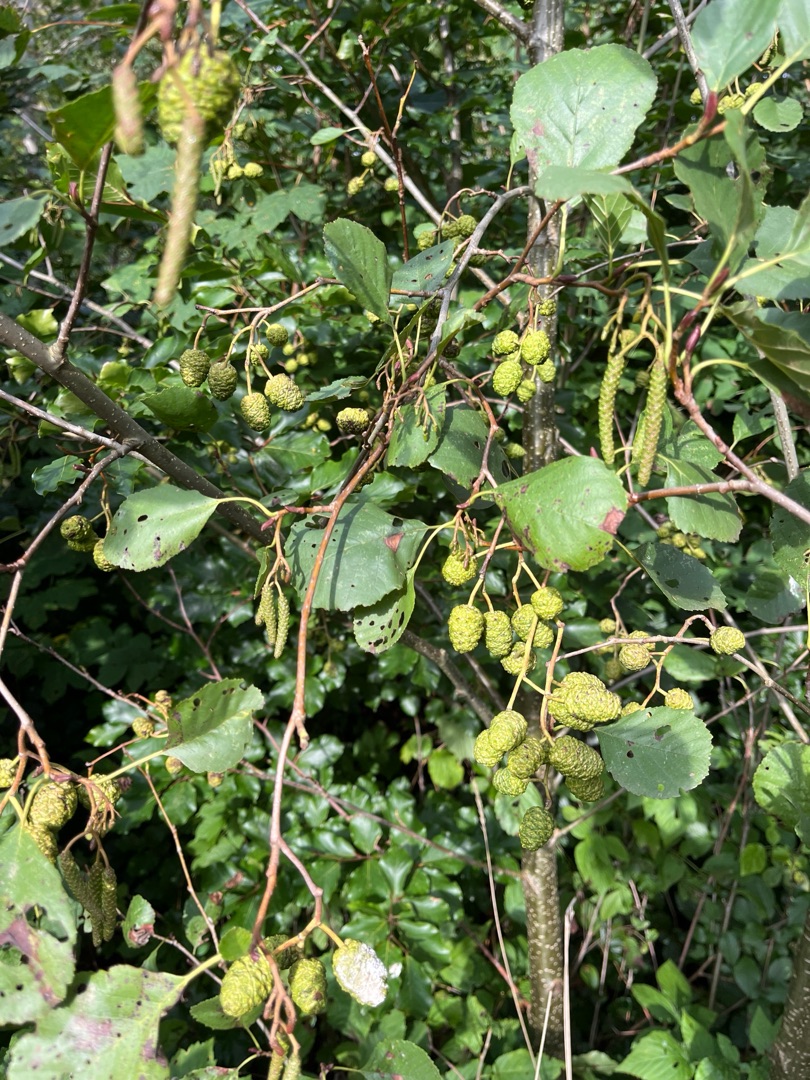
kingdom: Plantae
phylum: Tracheophyta
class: Magnoliopsida
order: Fagales
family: Betulaceae
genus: Alnus
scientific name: Alnus glutinosa
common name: Rød-el
